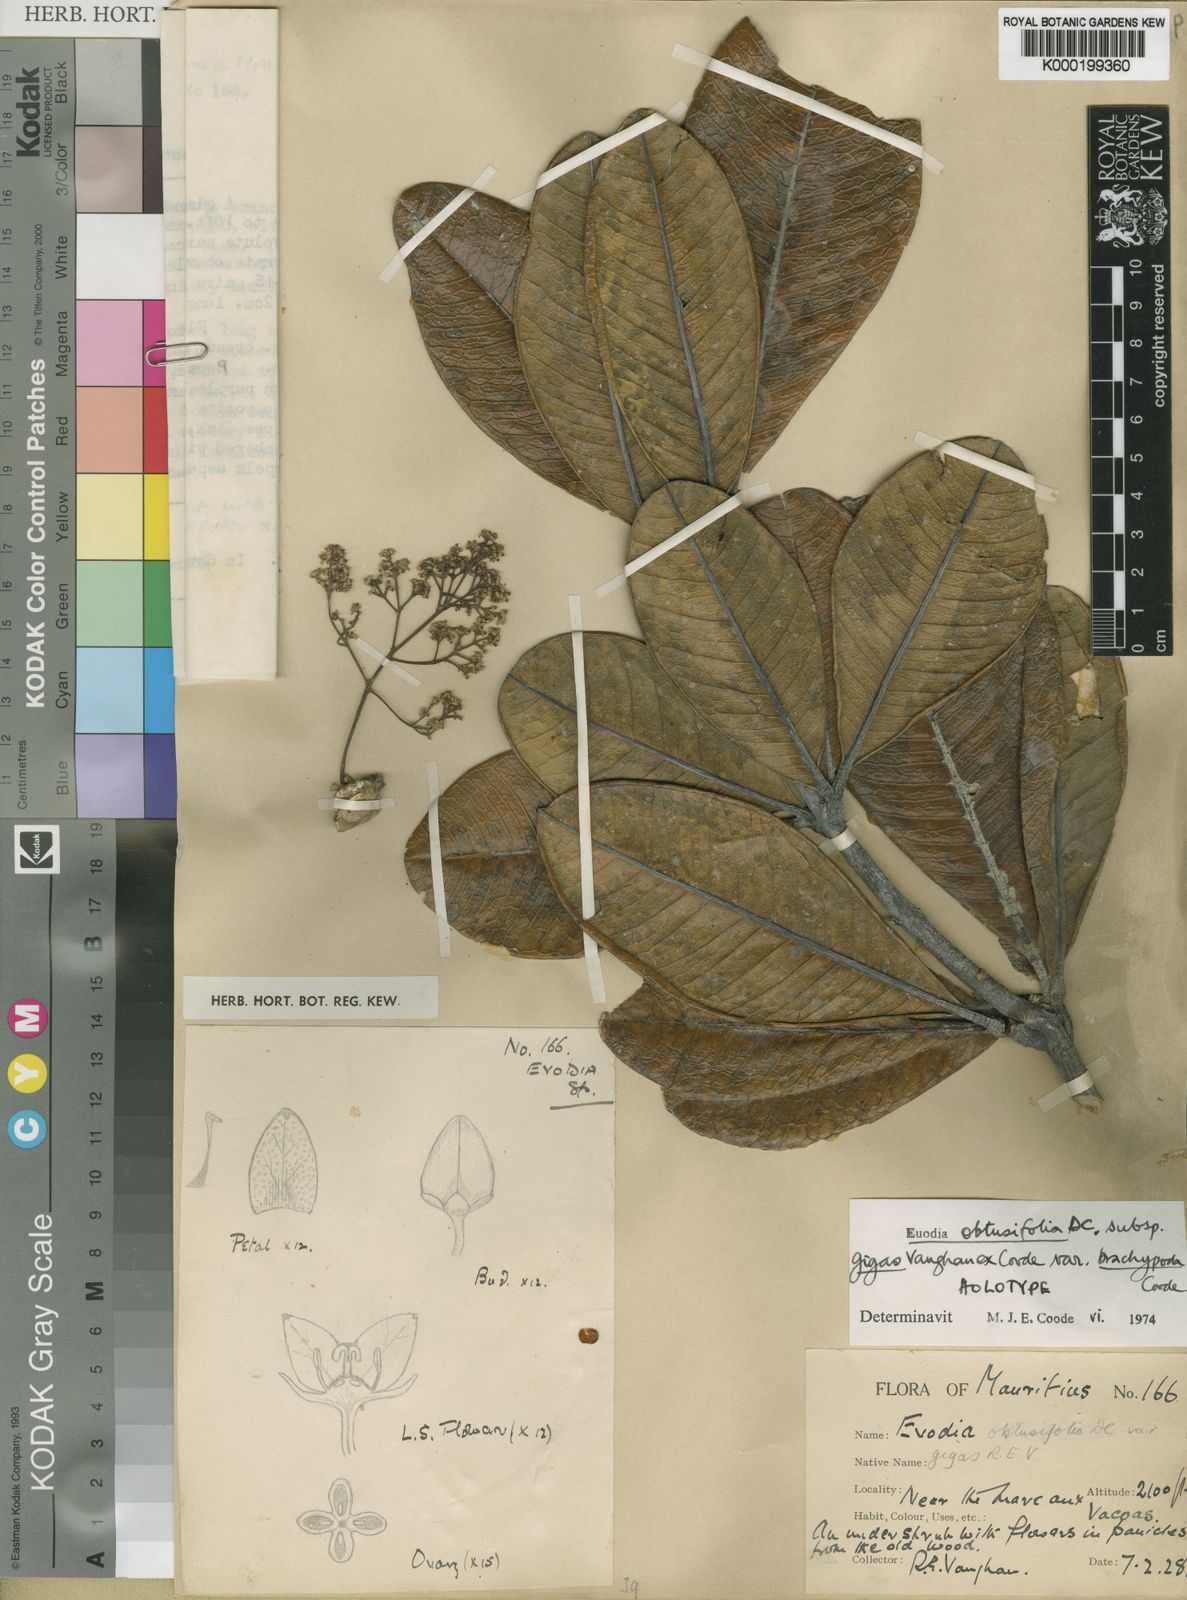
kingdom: Plantae
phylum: Tracheophyta
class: Magnoliopsida
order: Sapindales
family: Rutaceae
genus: Melicope
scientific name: Melicope obtusifolia
